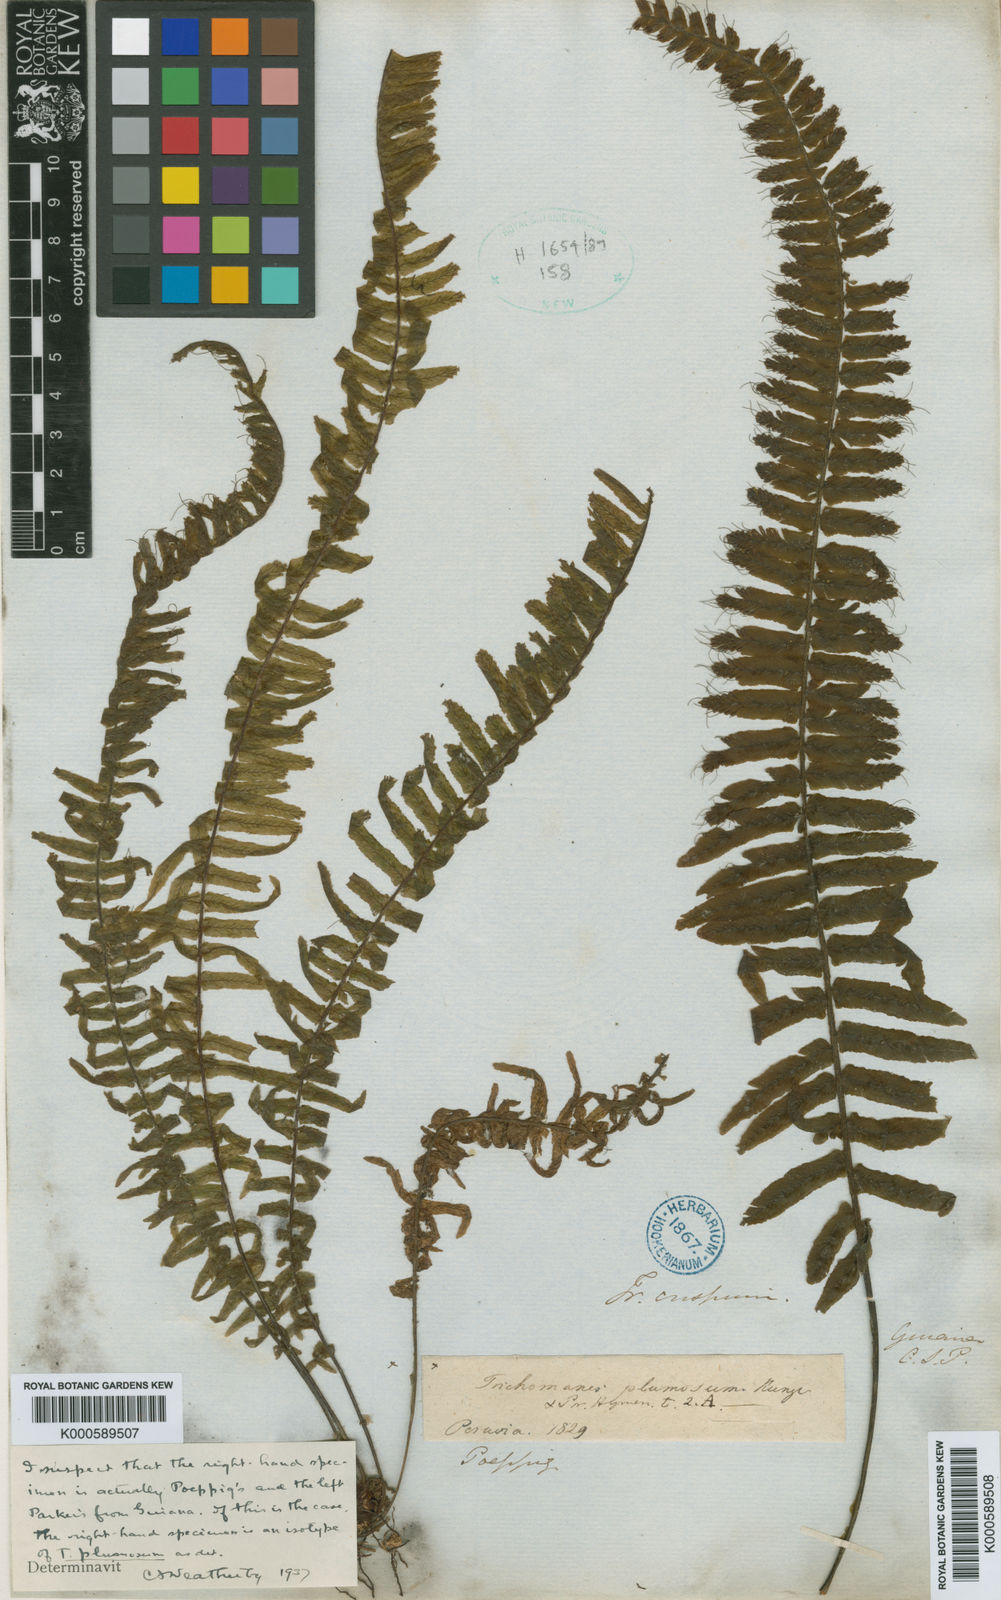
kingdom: Plantae
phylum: Tracheophyta
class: Polypodiopsida
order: Hymenophyllales
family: Hymenophyllaceae
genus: Trichomanes
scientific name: Trichomanes plumosum
